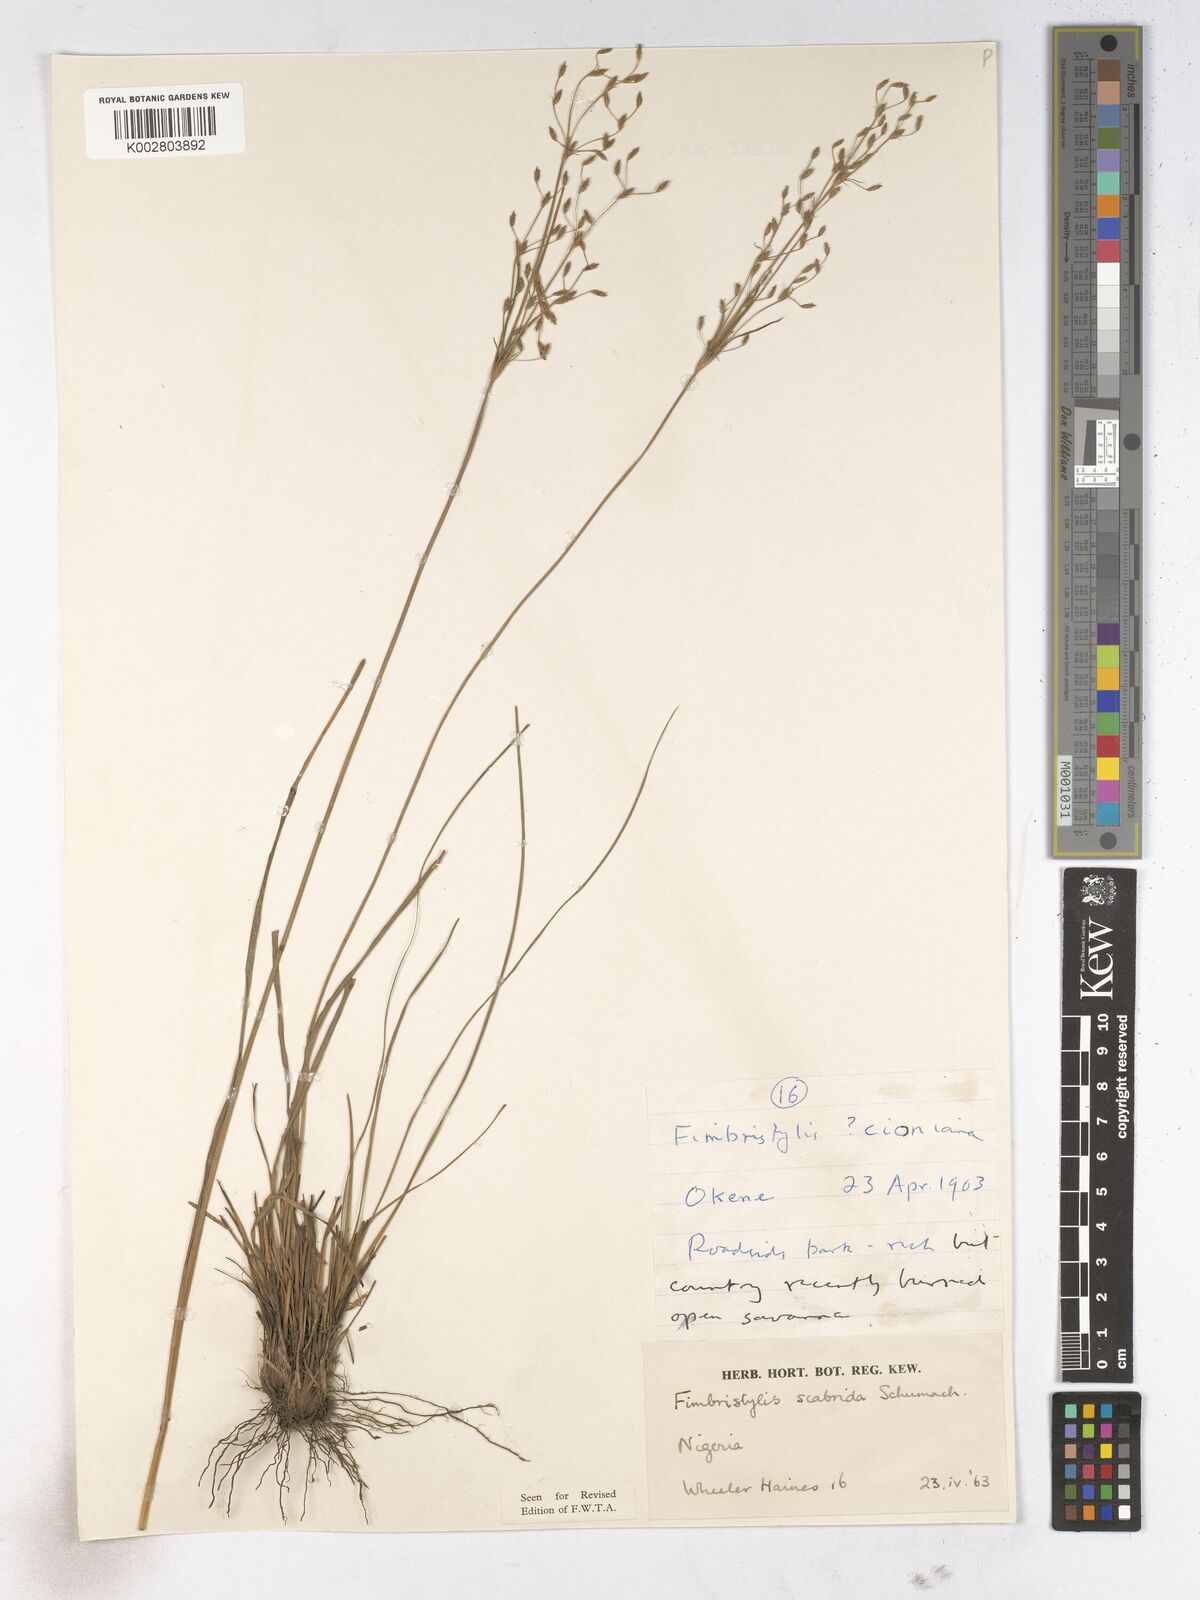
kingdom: Plantae
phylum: Tracheophyta
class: Liliopsida
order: Poales
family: Cyperaceae
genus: Fimbristylis
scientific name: Fimbristylis scabrida
